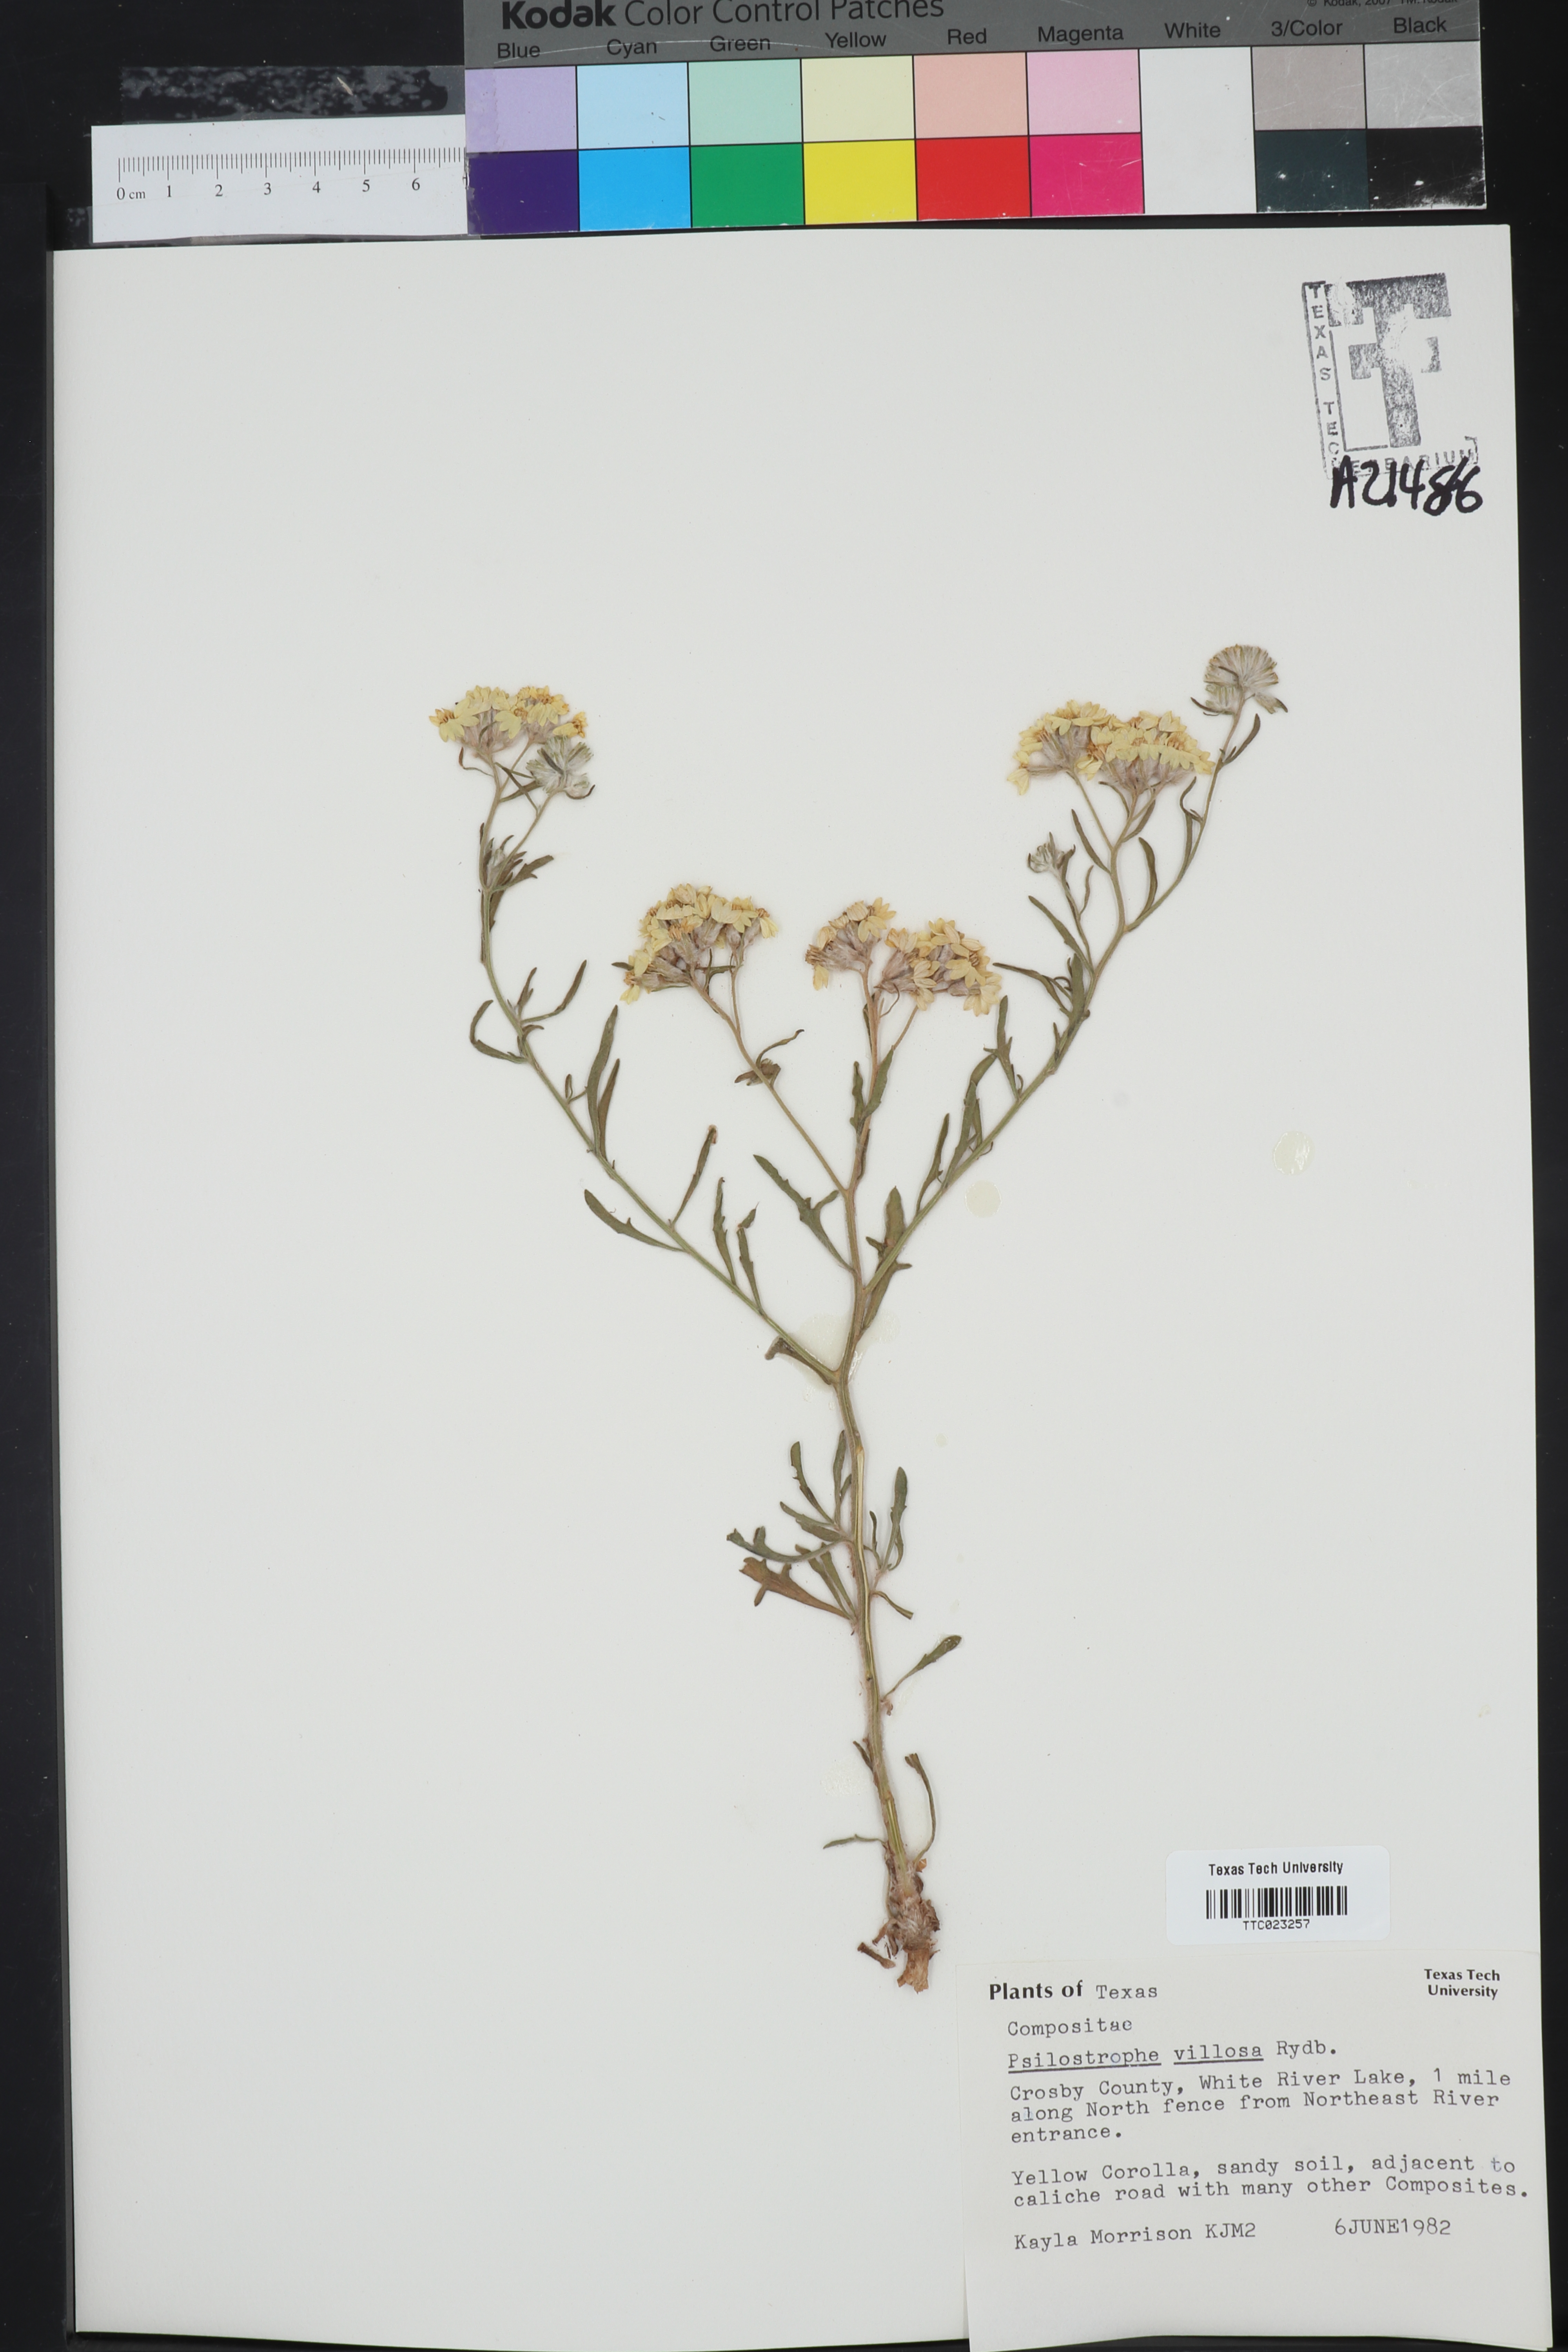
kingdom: Plantae
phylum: Tracheophyta
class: Magnoliopsida
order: Asterales
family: Asteraceae
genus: Psilostrophe
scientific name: Psilostrophe villosa
